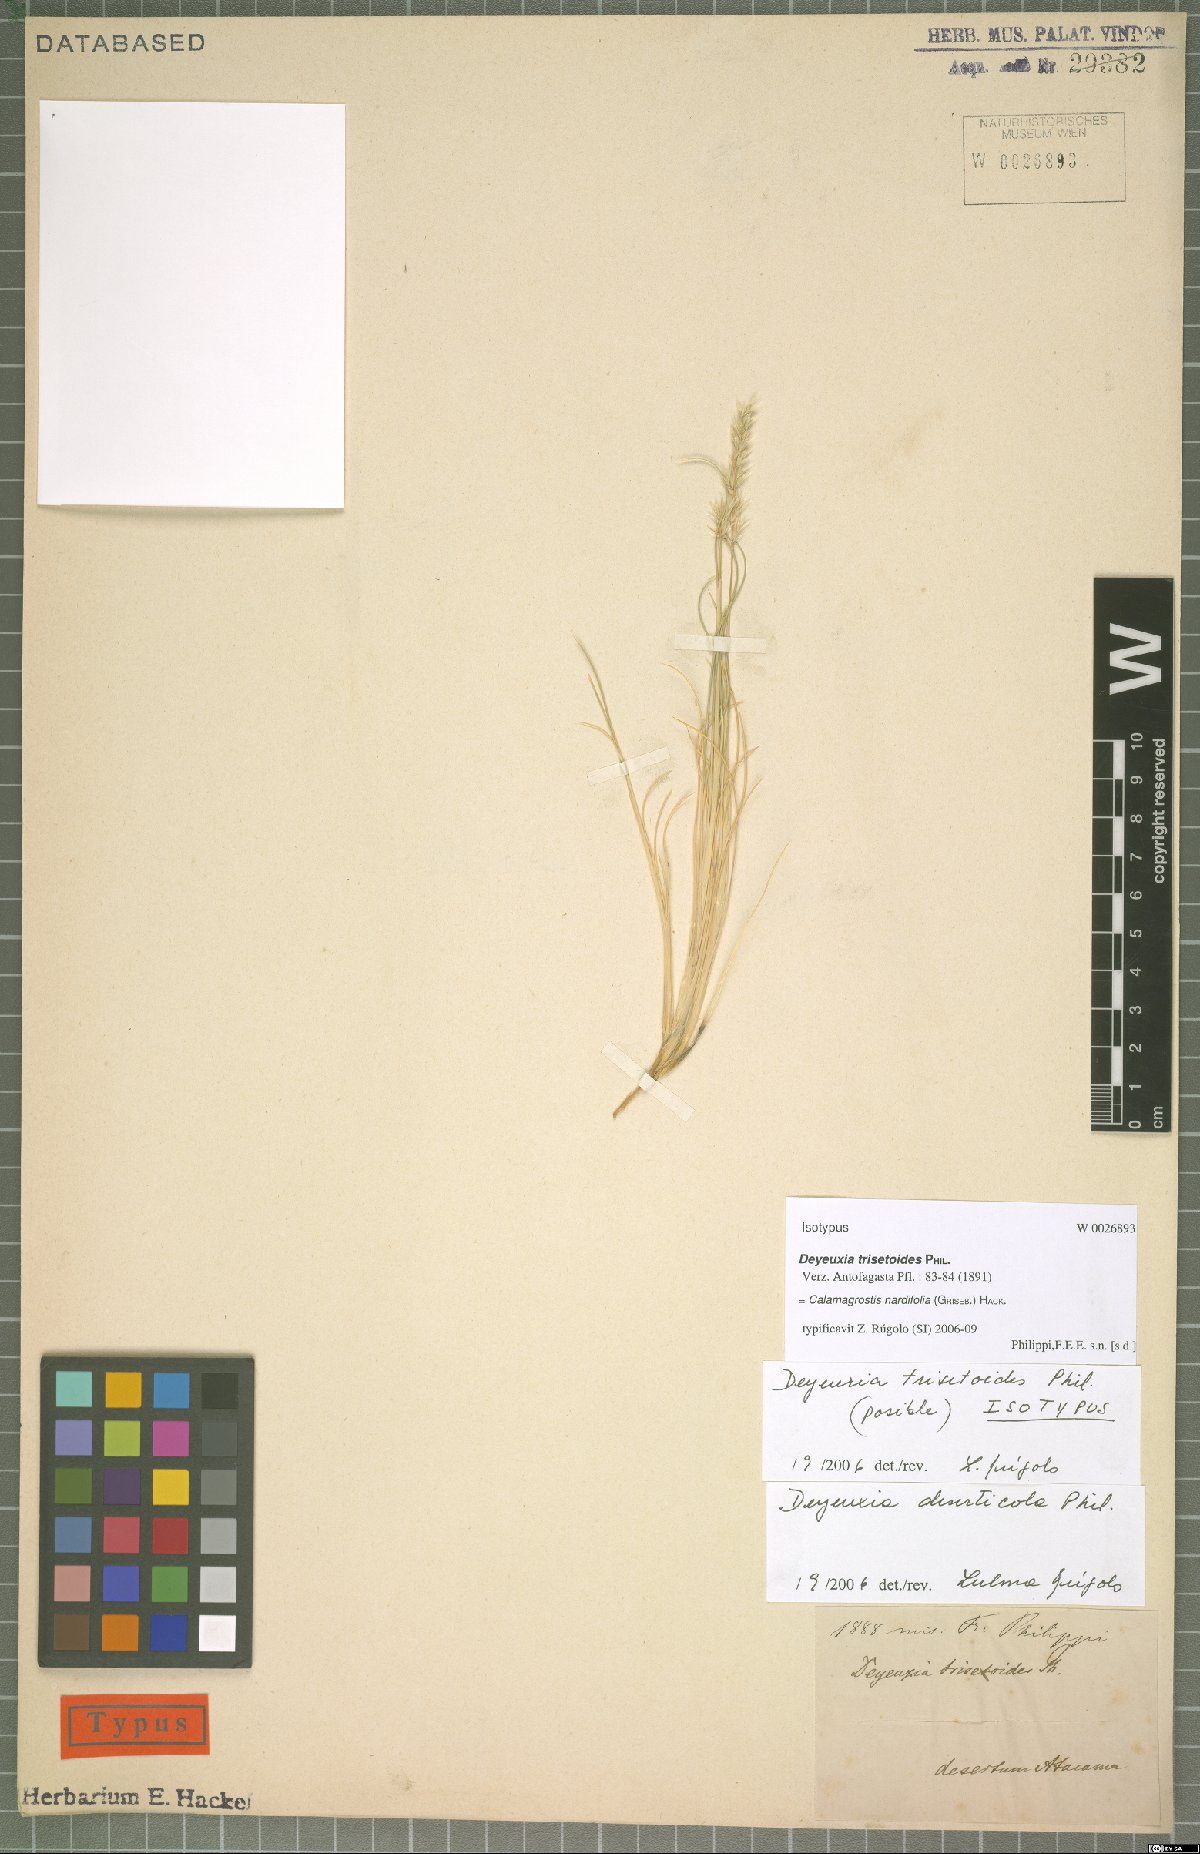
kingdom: Plantae
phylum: Tracheophyta
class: Liliopsida
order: Poales
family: Poaceae
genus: Calamagrostis
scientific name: Calamagrostis nardifolia
